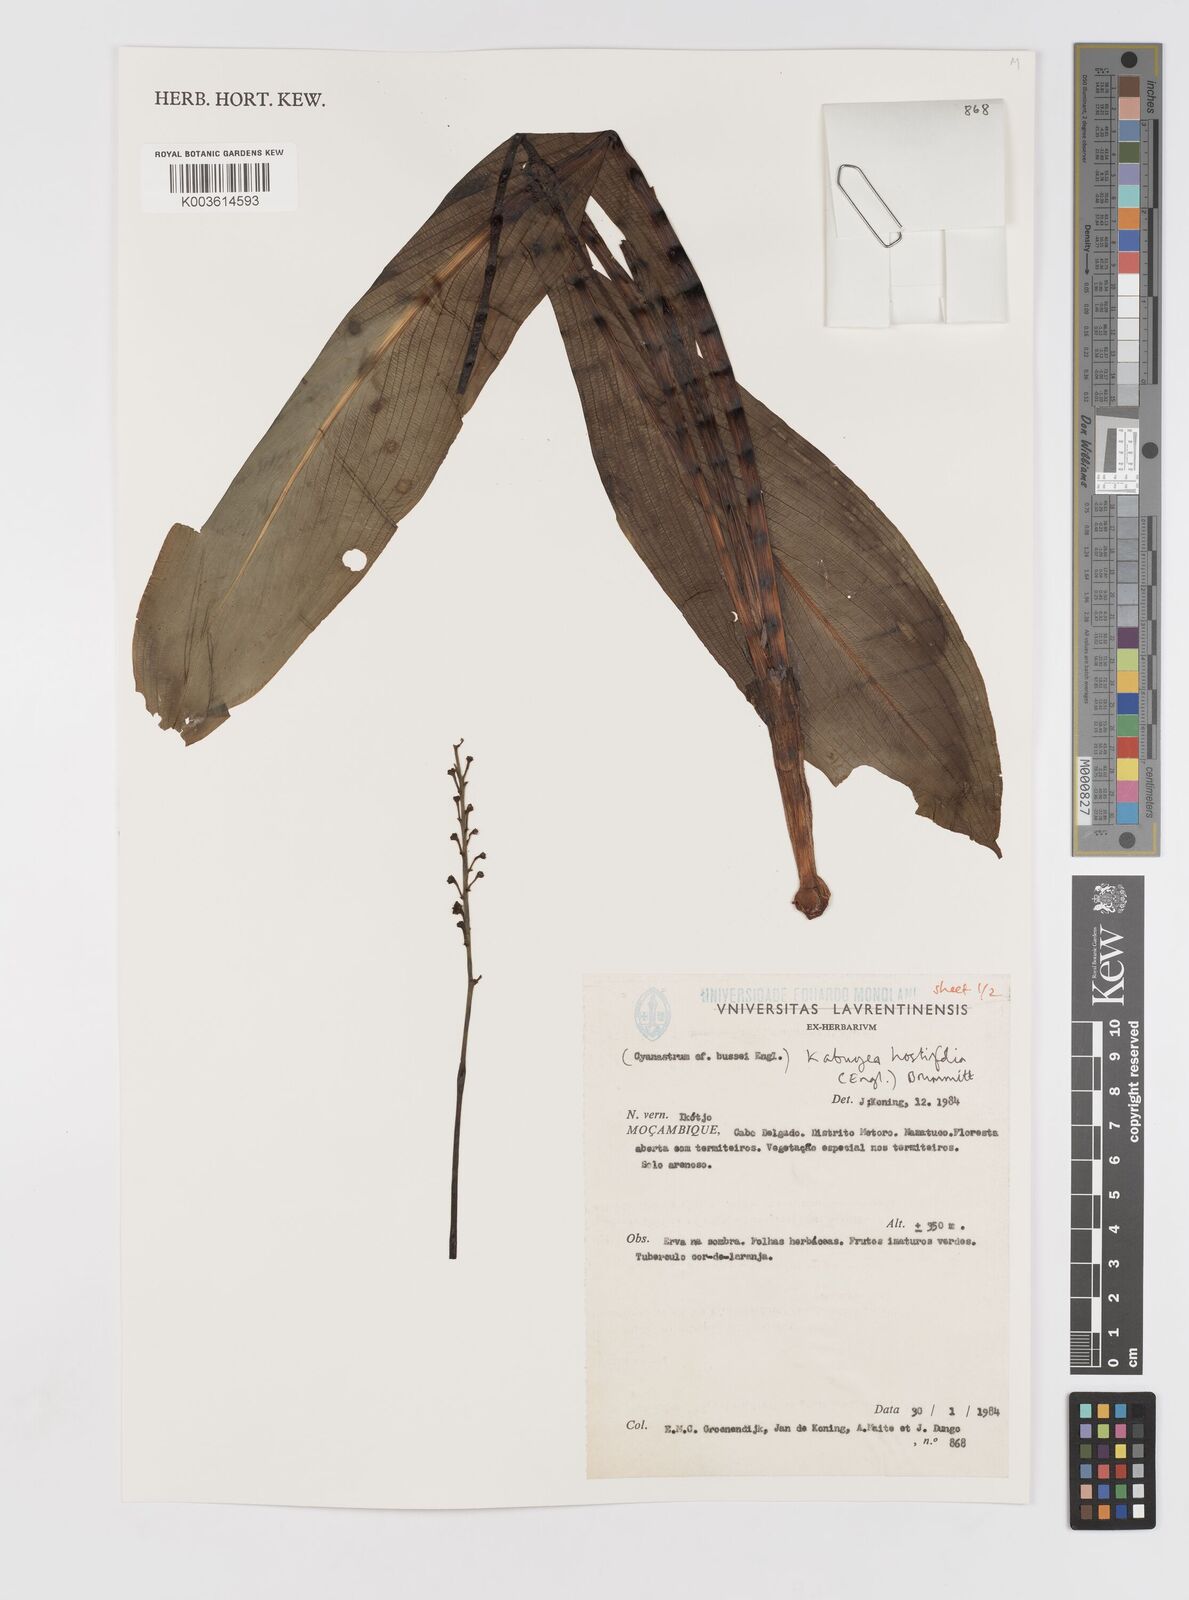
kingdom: Plantae
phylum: Tracheophyta
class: Liliopsida
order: Asparagales
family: Tecophilaeaceae
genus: Kabuyea
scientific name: Kabuyea hostifolia
